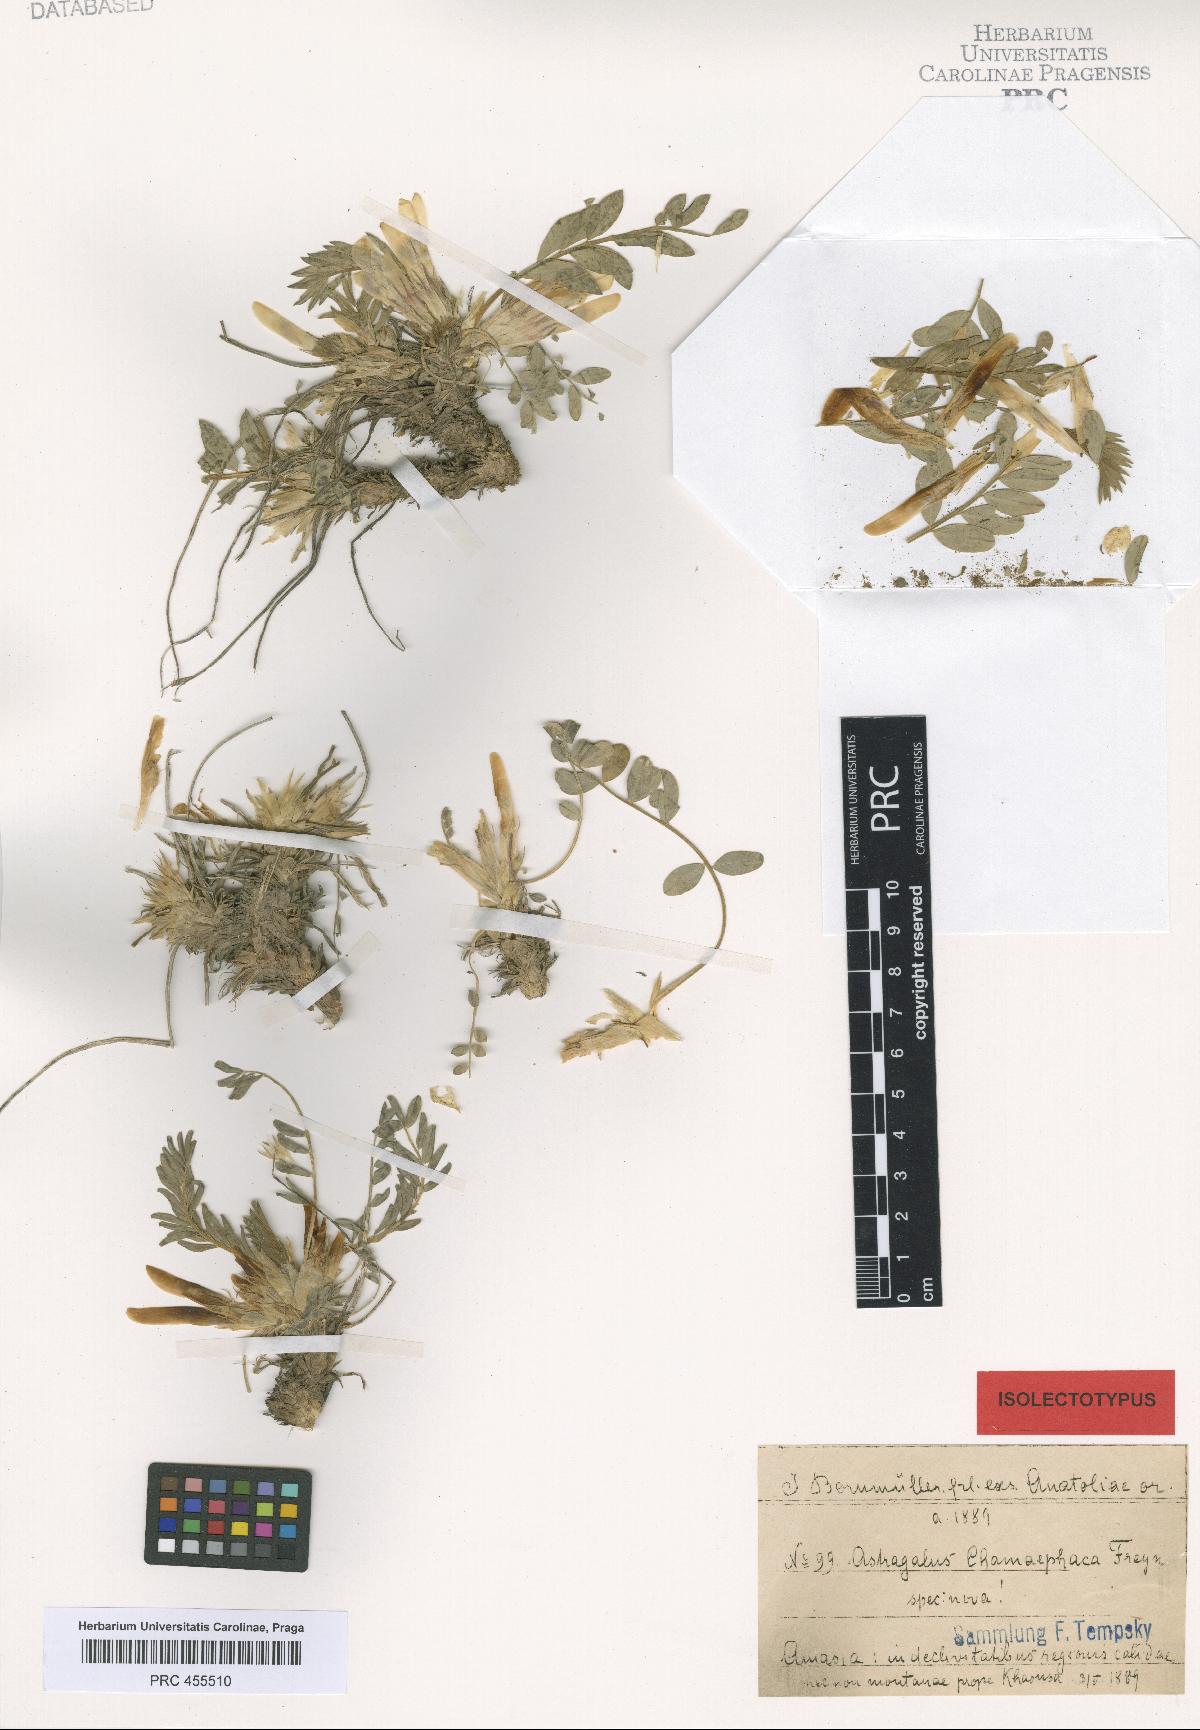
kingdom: Plantae
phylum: Tracheophyta
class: Magnoliopsida
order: Fabales
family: Fabaceae
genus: Astragalus
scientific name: Astragalus chamaephaca
